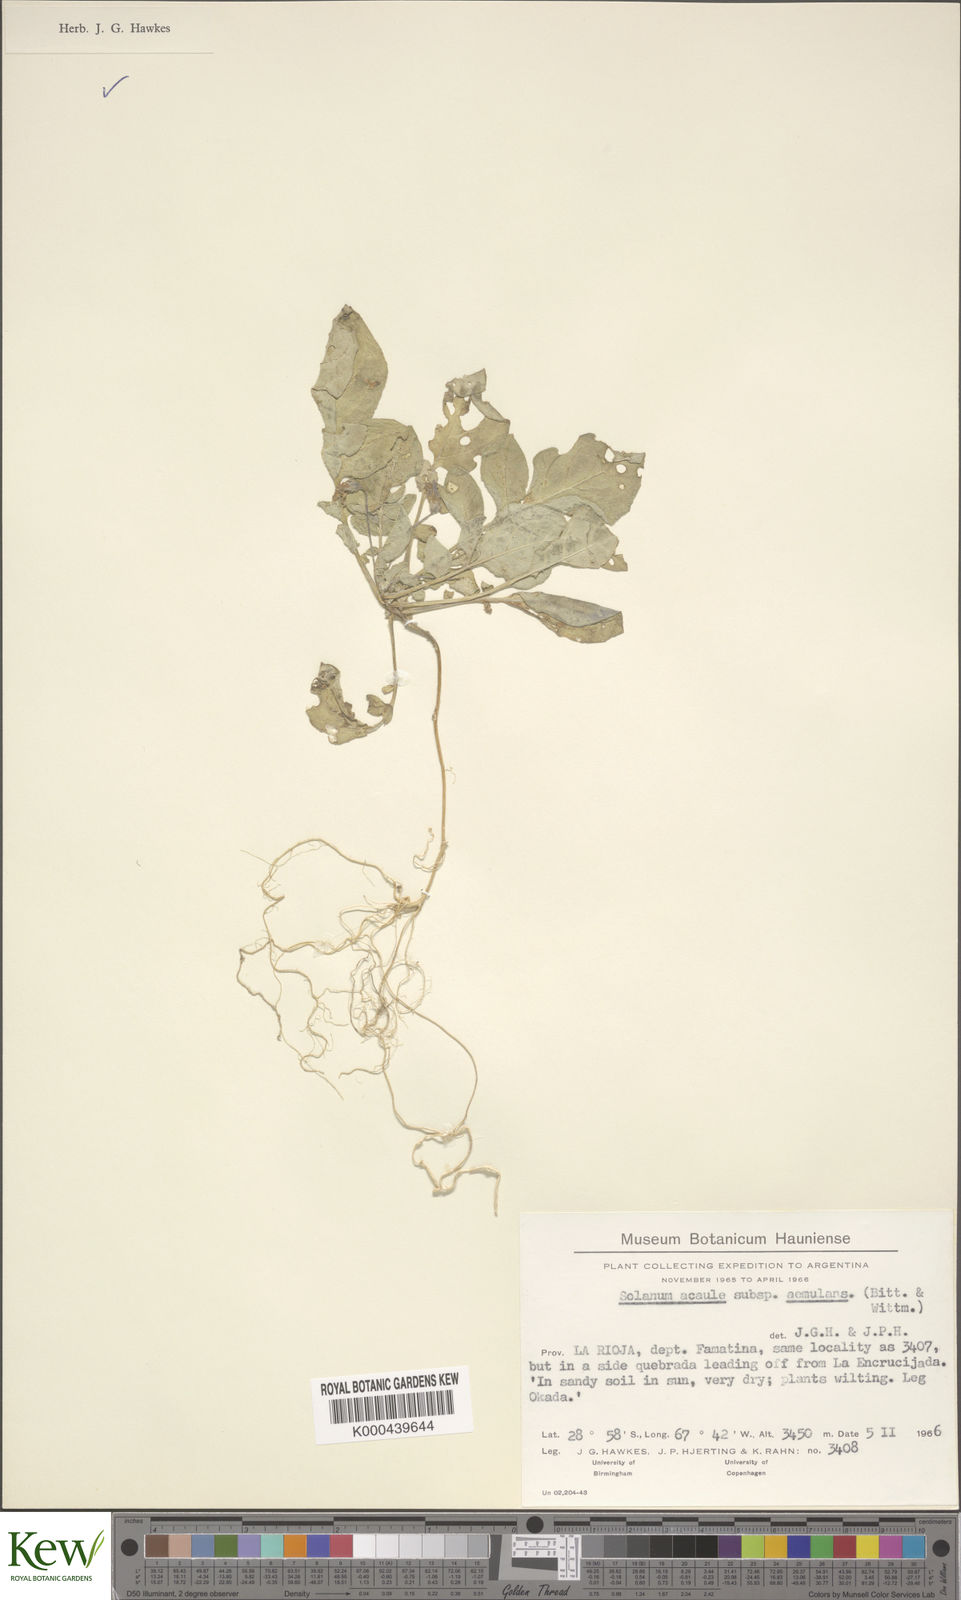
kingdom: Plantae
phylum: Tracheophyta
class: Magnoliopsida
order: Solanales
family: Solanaceae
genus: Solanum
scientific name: Solanum aemulans
